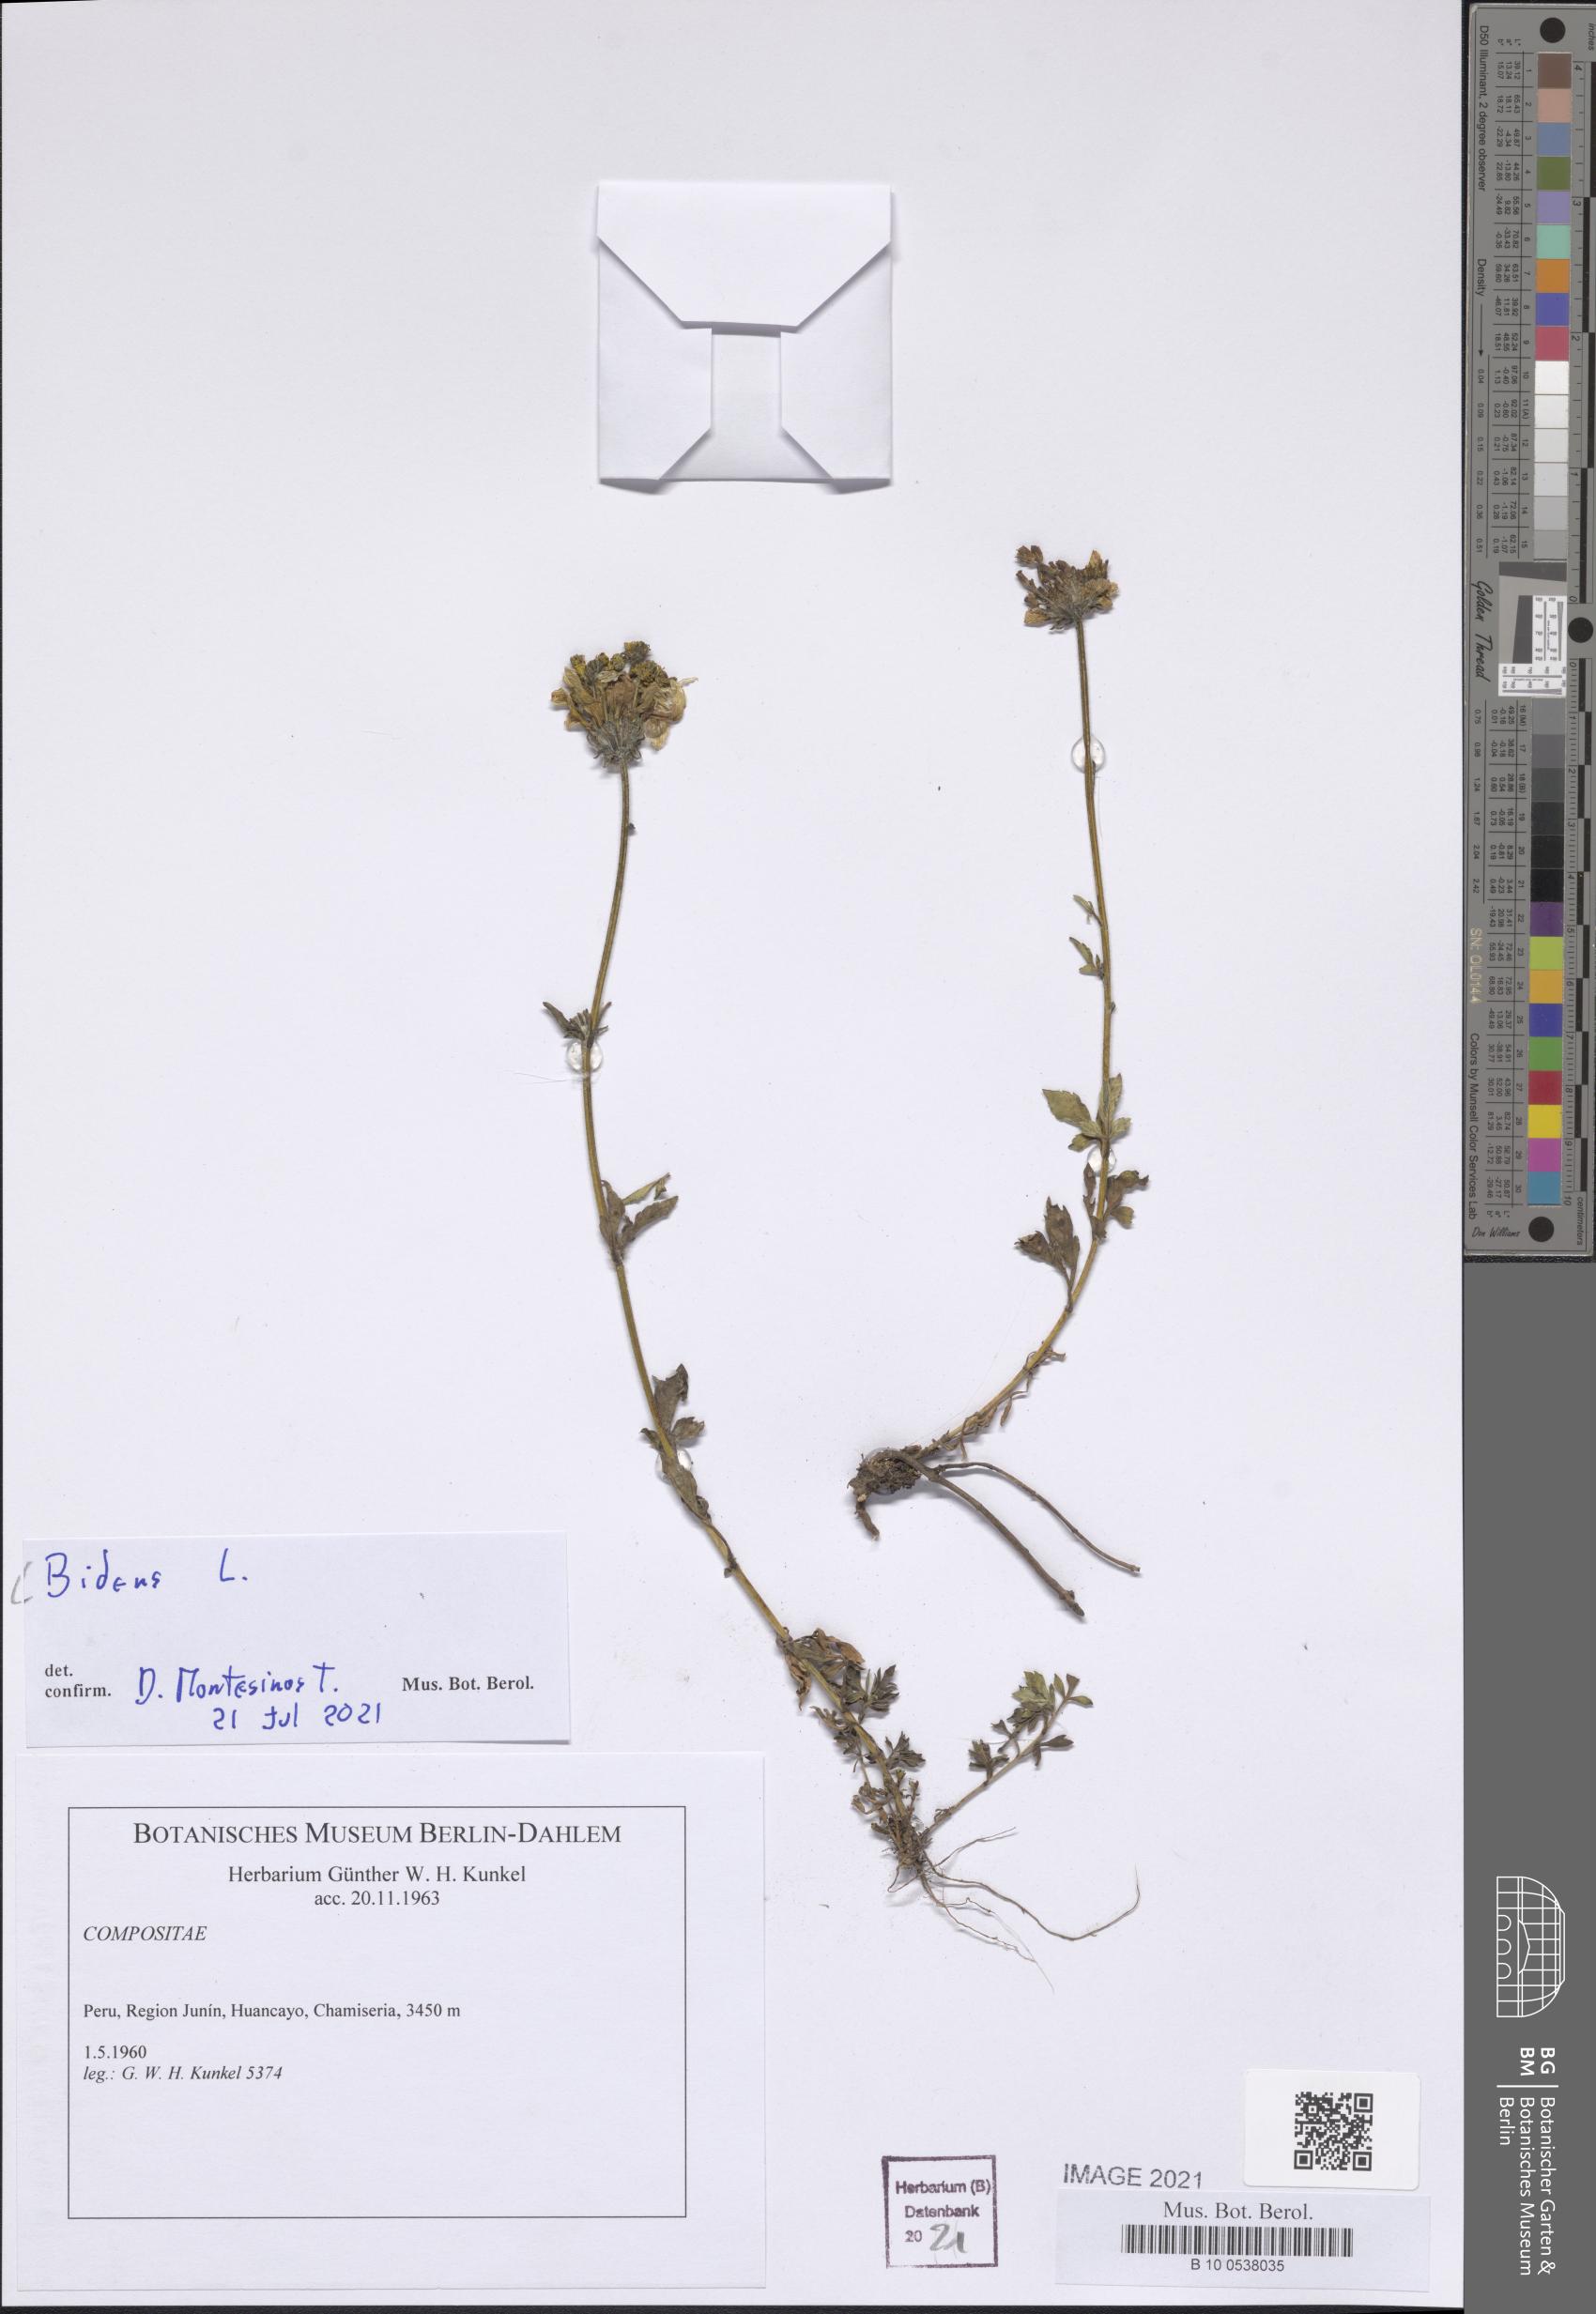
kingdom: Plantae
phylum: Tracheophyta
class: Magnoliopsida
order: Asterales
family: Asteraceae
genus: Bidens
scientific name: Bidens
